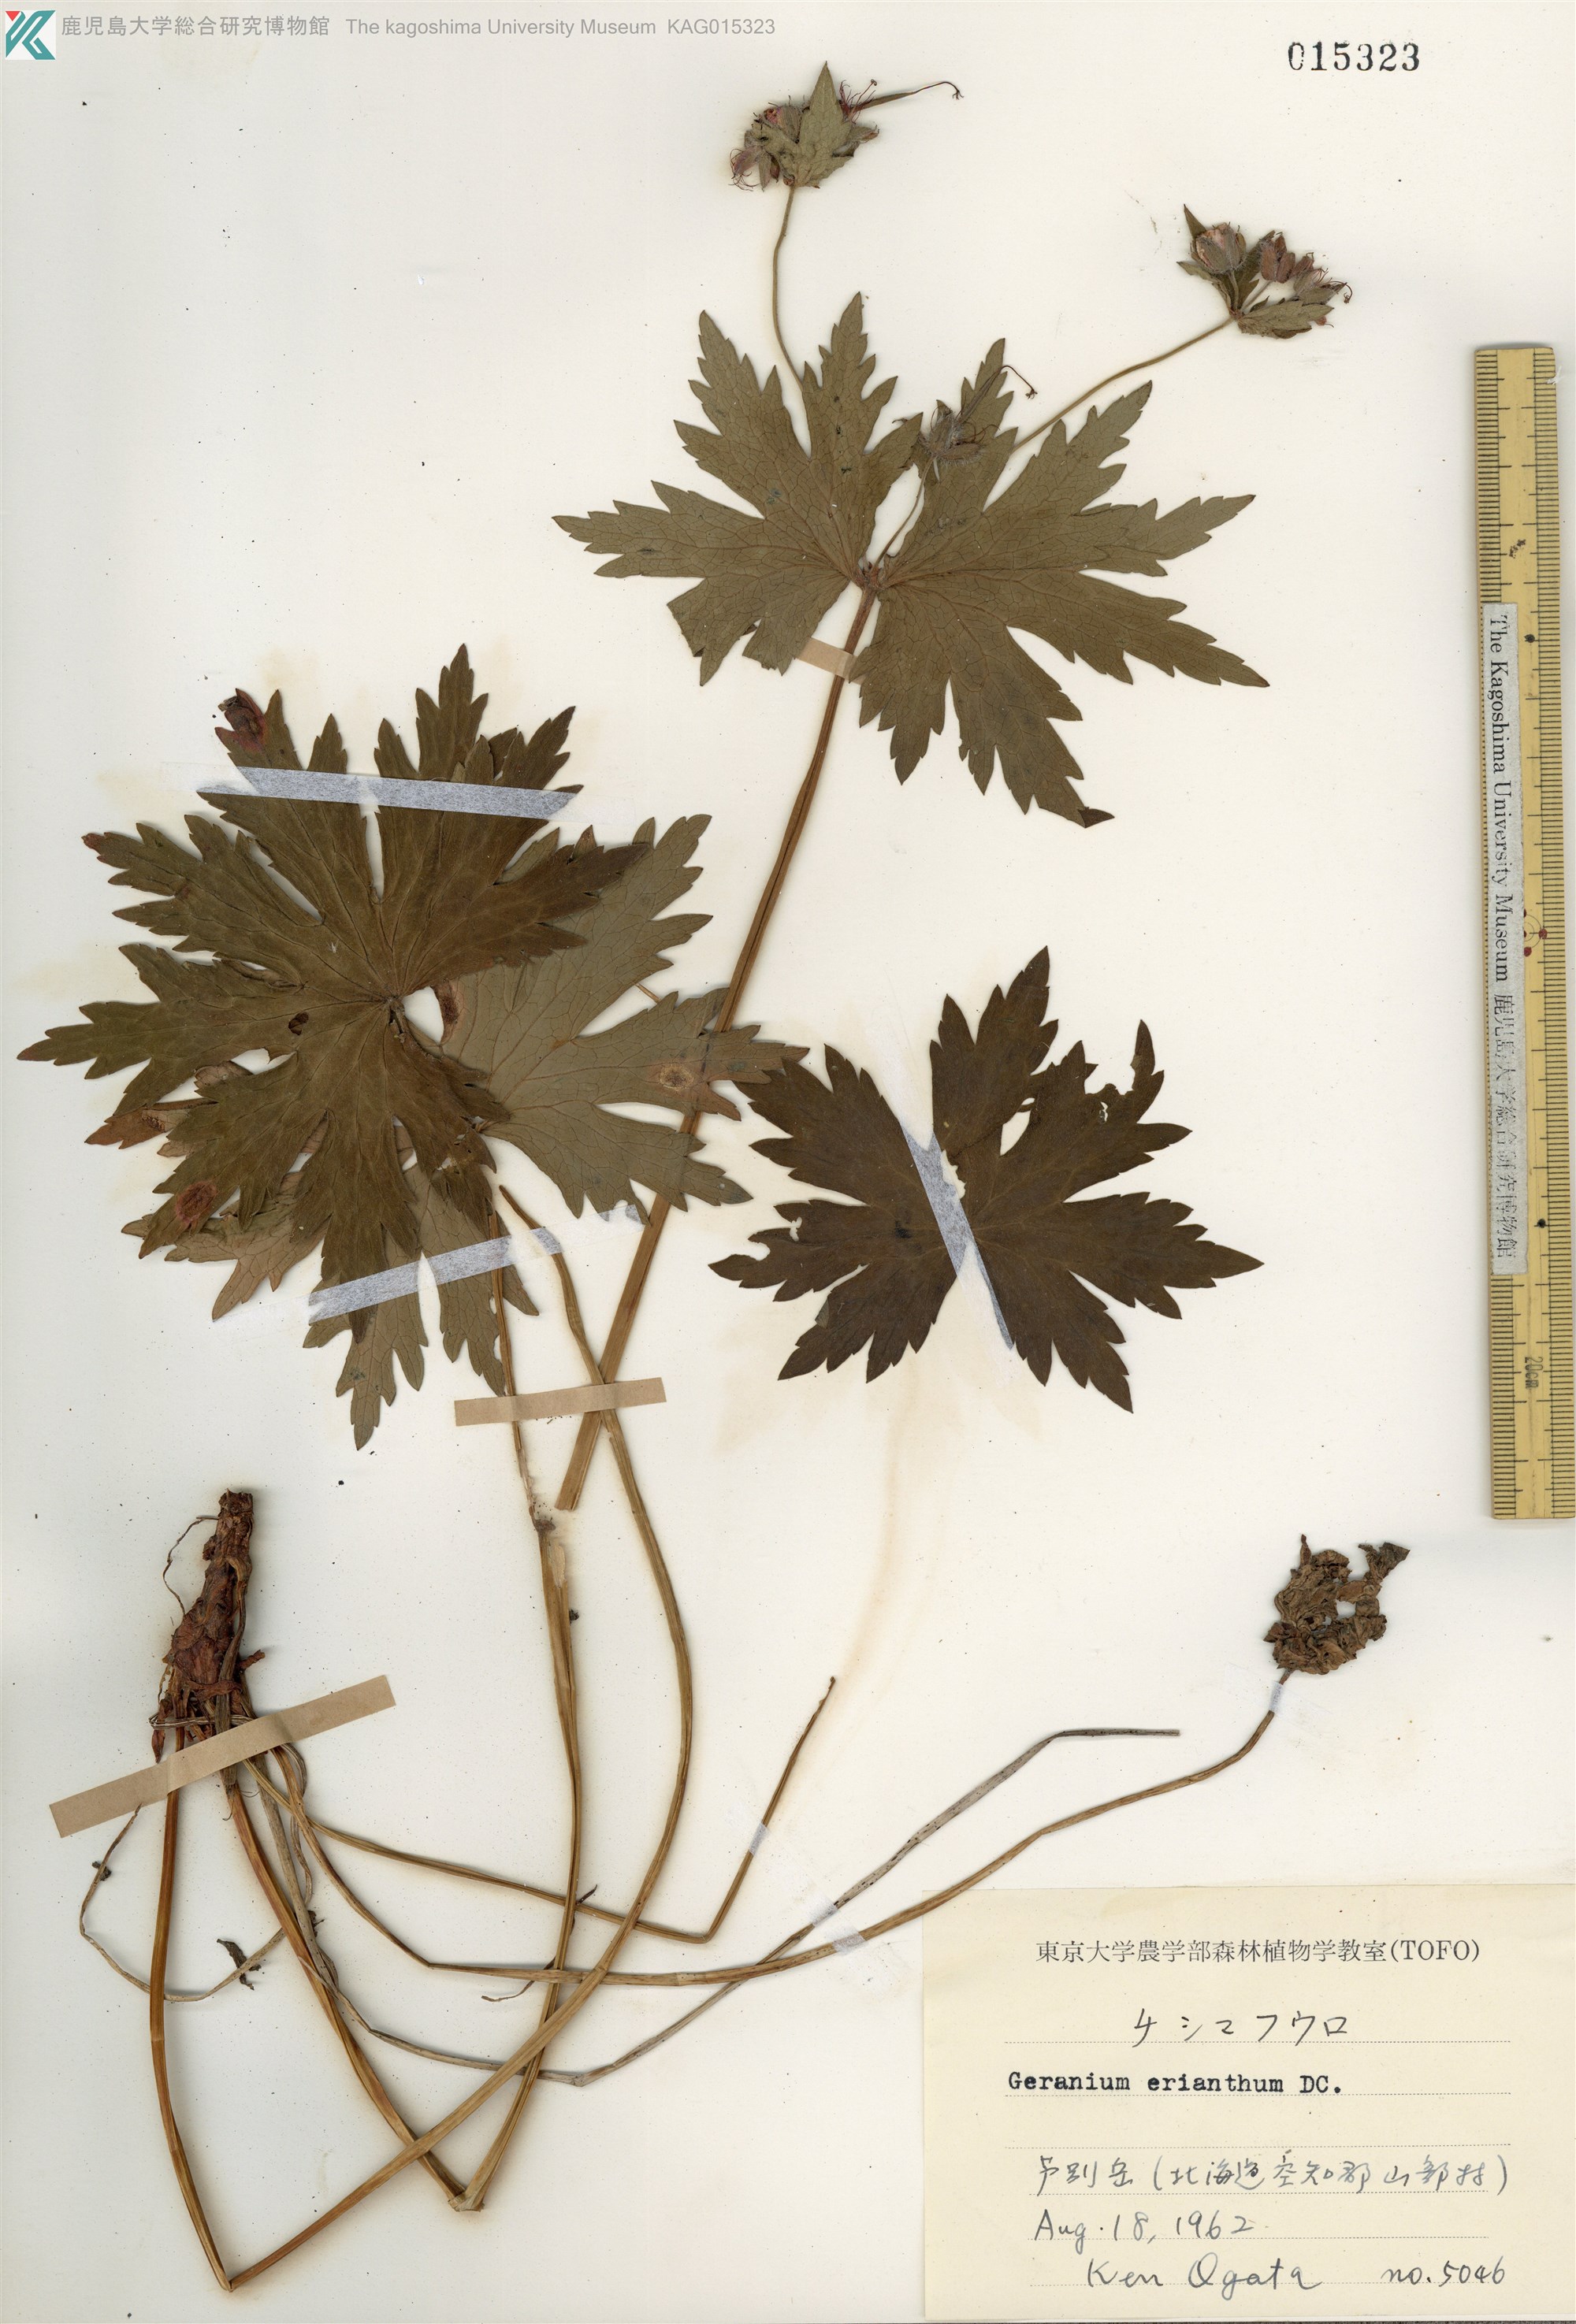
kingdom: Plantae
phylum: Tracheophyta
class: Magnoliopsida
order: Geraniales
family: Geraniaceae
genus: Geranium
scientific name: Geranium erianthum
